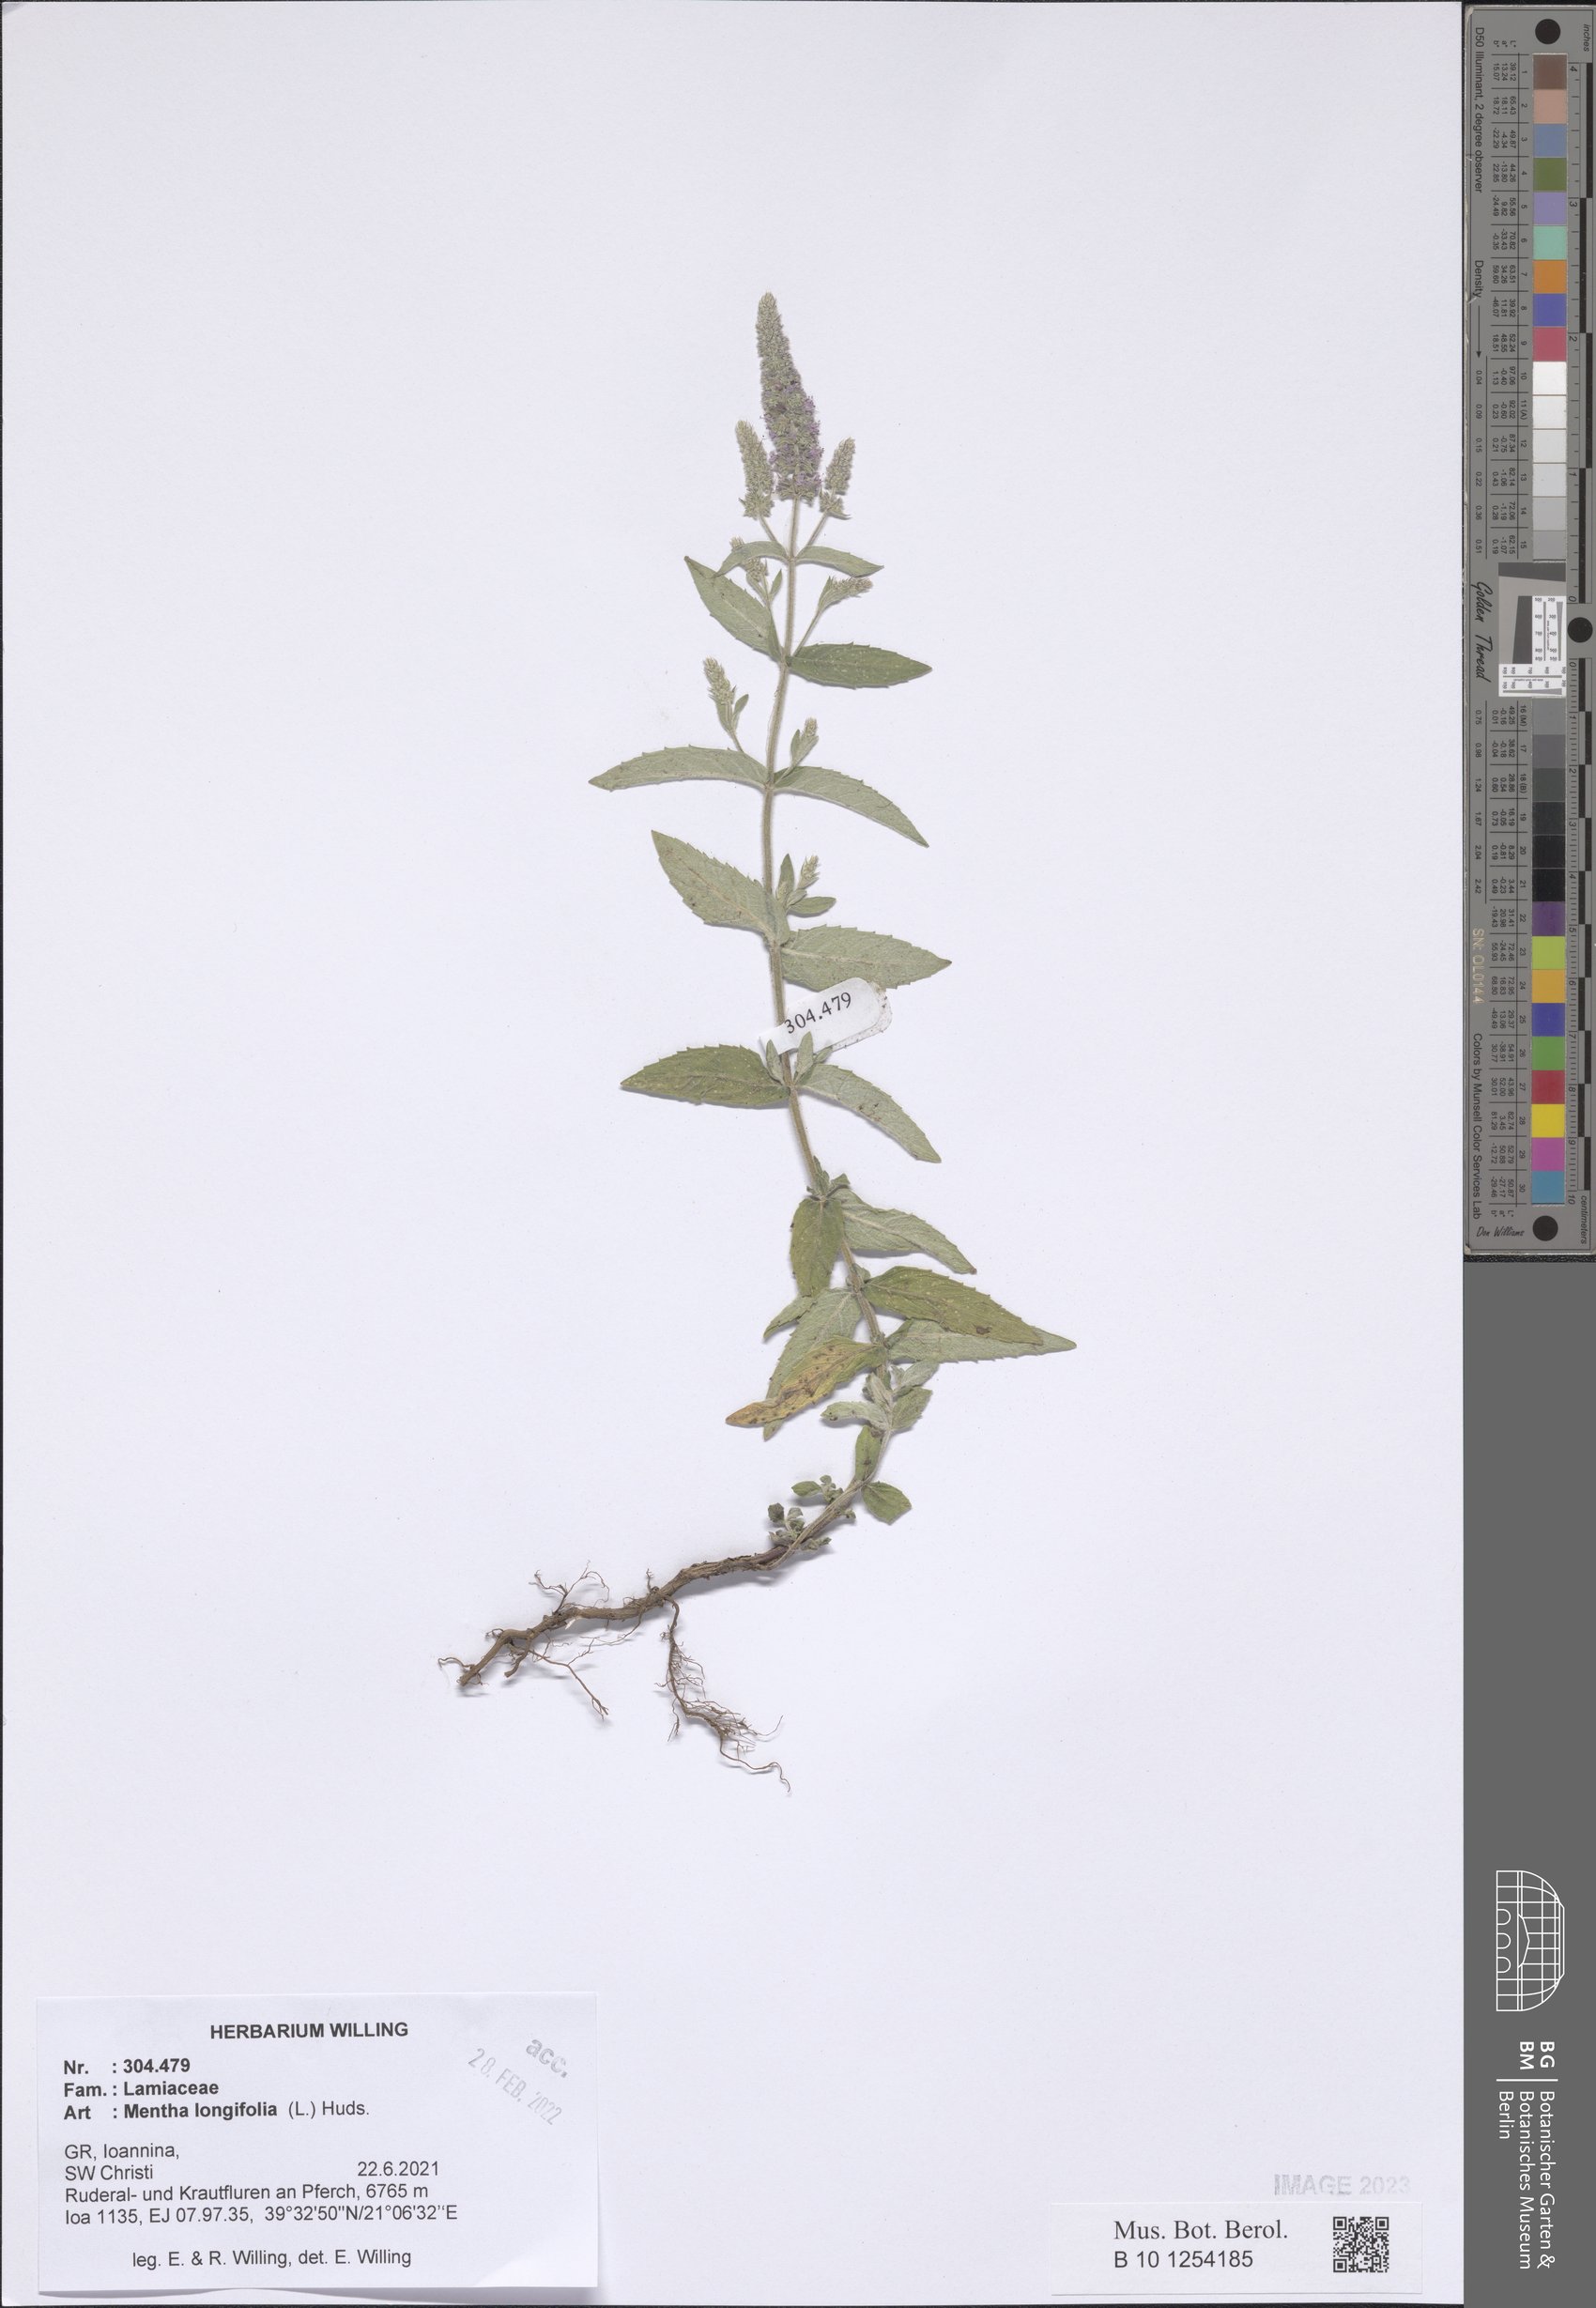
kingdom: Plantae
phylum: Tracheophyta
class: Magnoliopsida
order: Lamiales
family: Lamiaceae
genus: Mentha
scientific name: Mentha longifolia
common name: Horse mint
